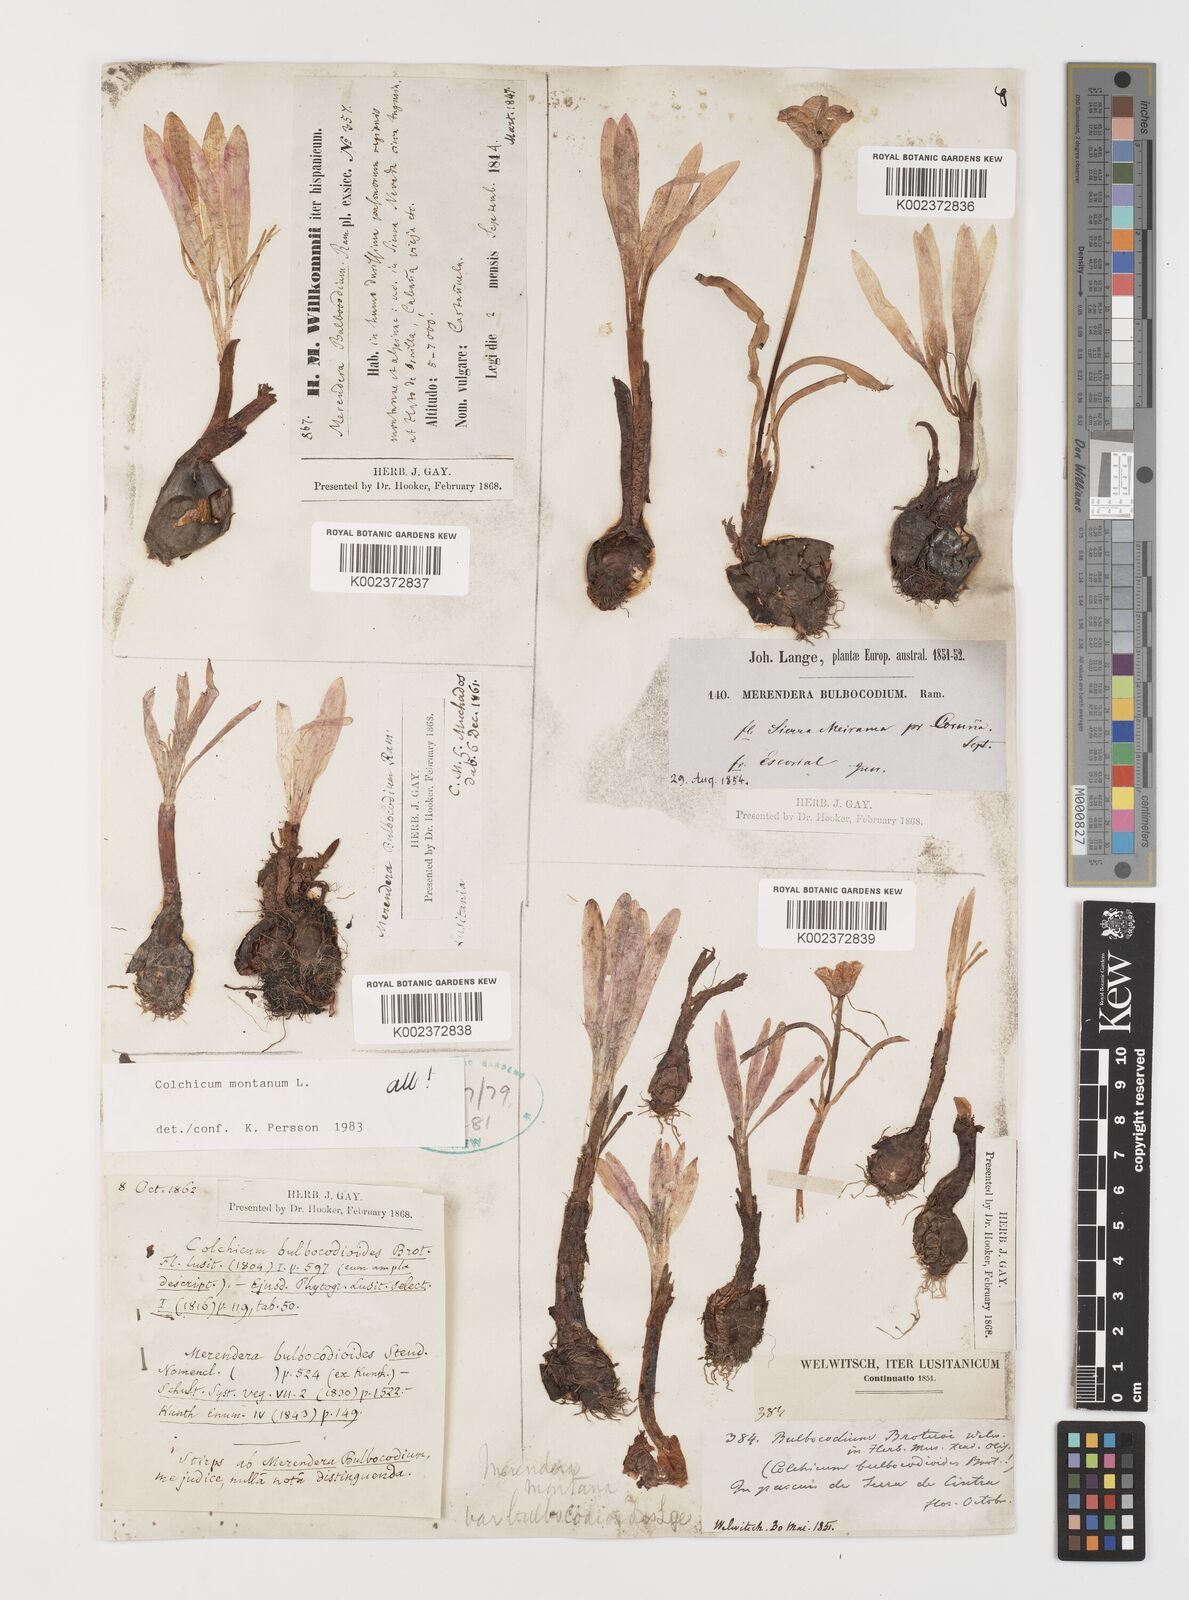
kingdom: Plantae
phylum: Tracheophyta
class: Liliopsida
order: Liliales
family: Colchicaceae
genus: Colchicum
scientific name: Colchicum montanum
